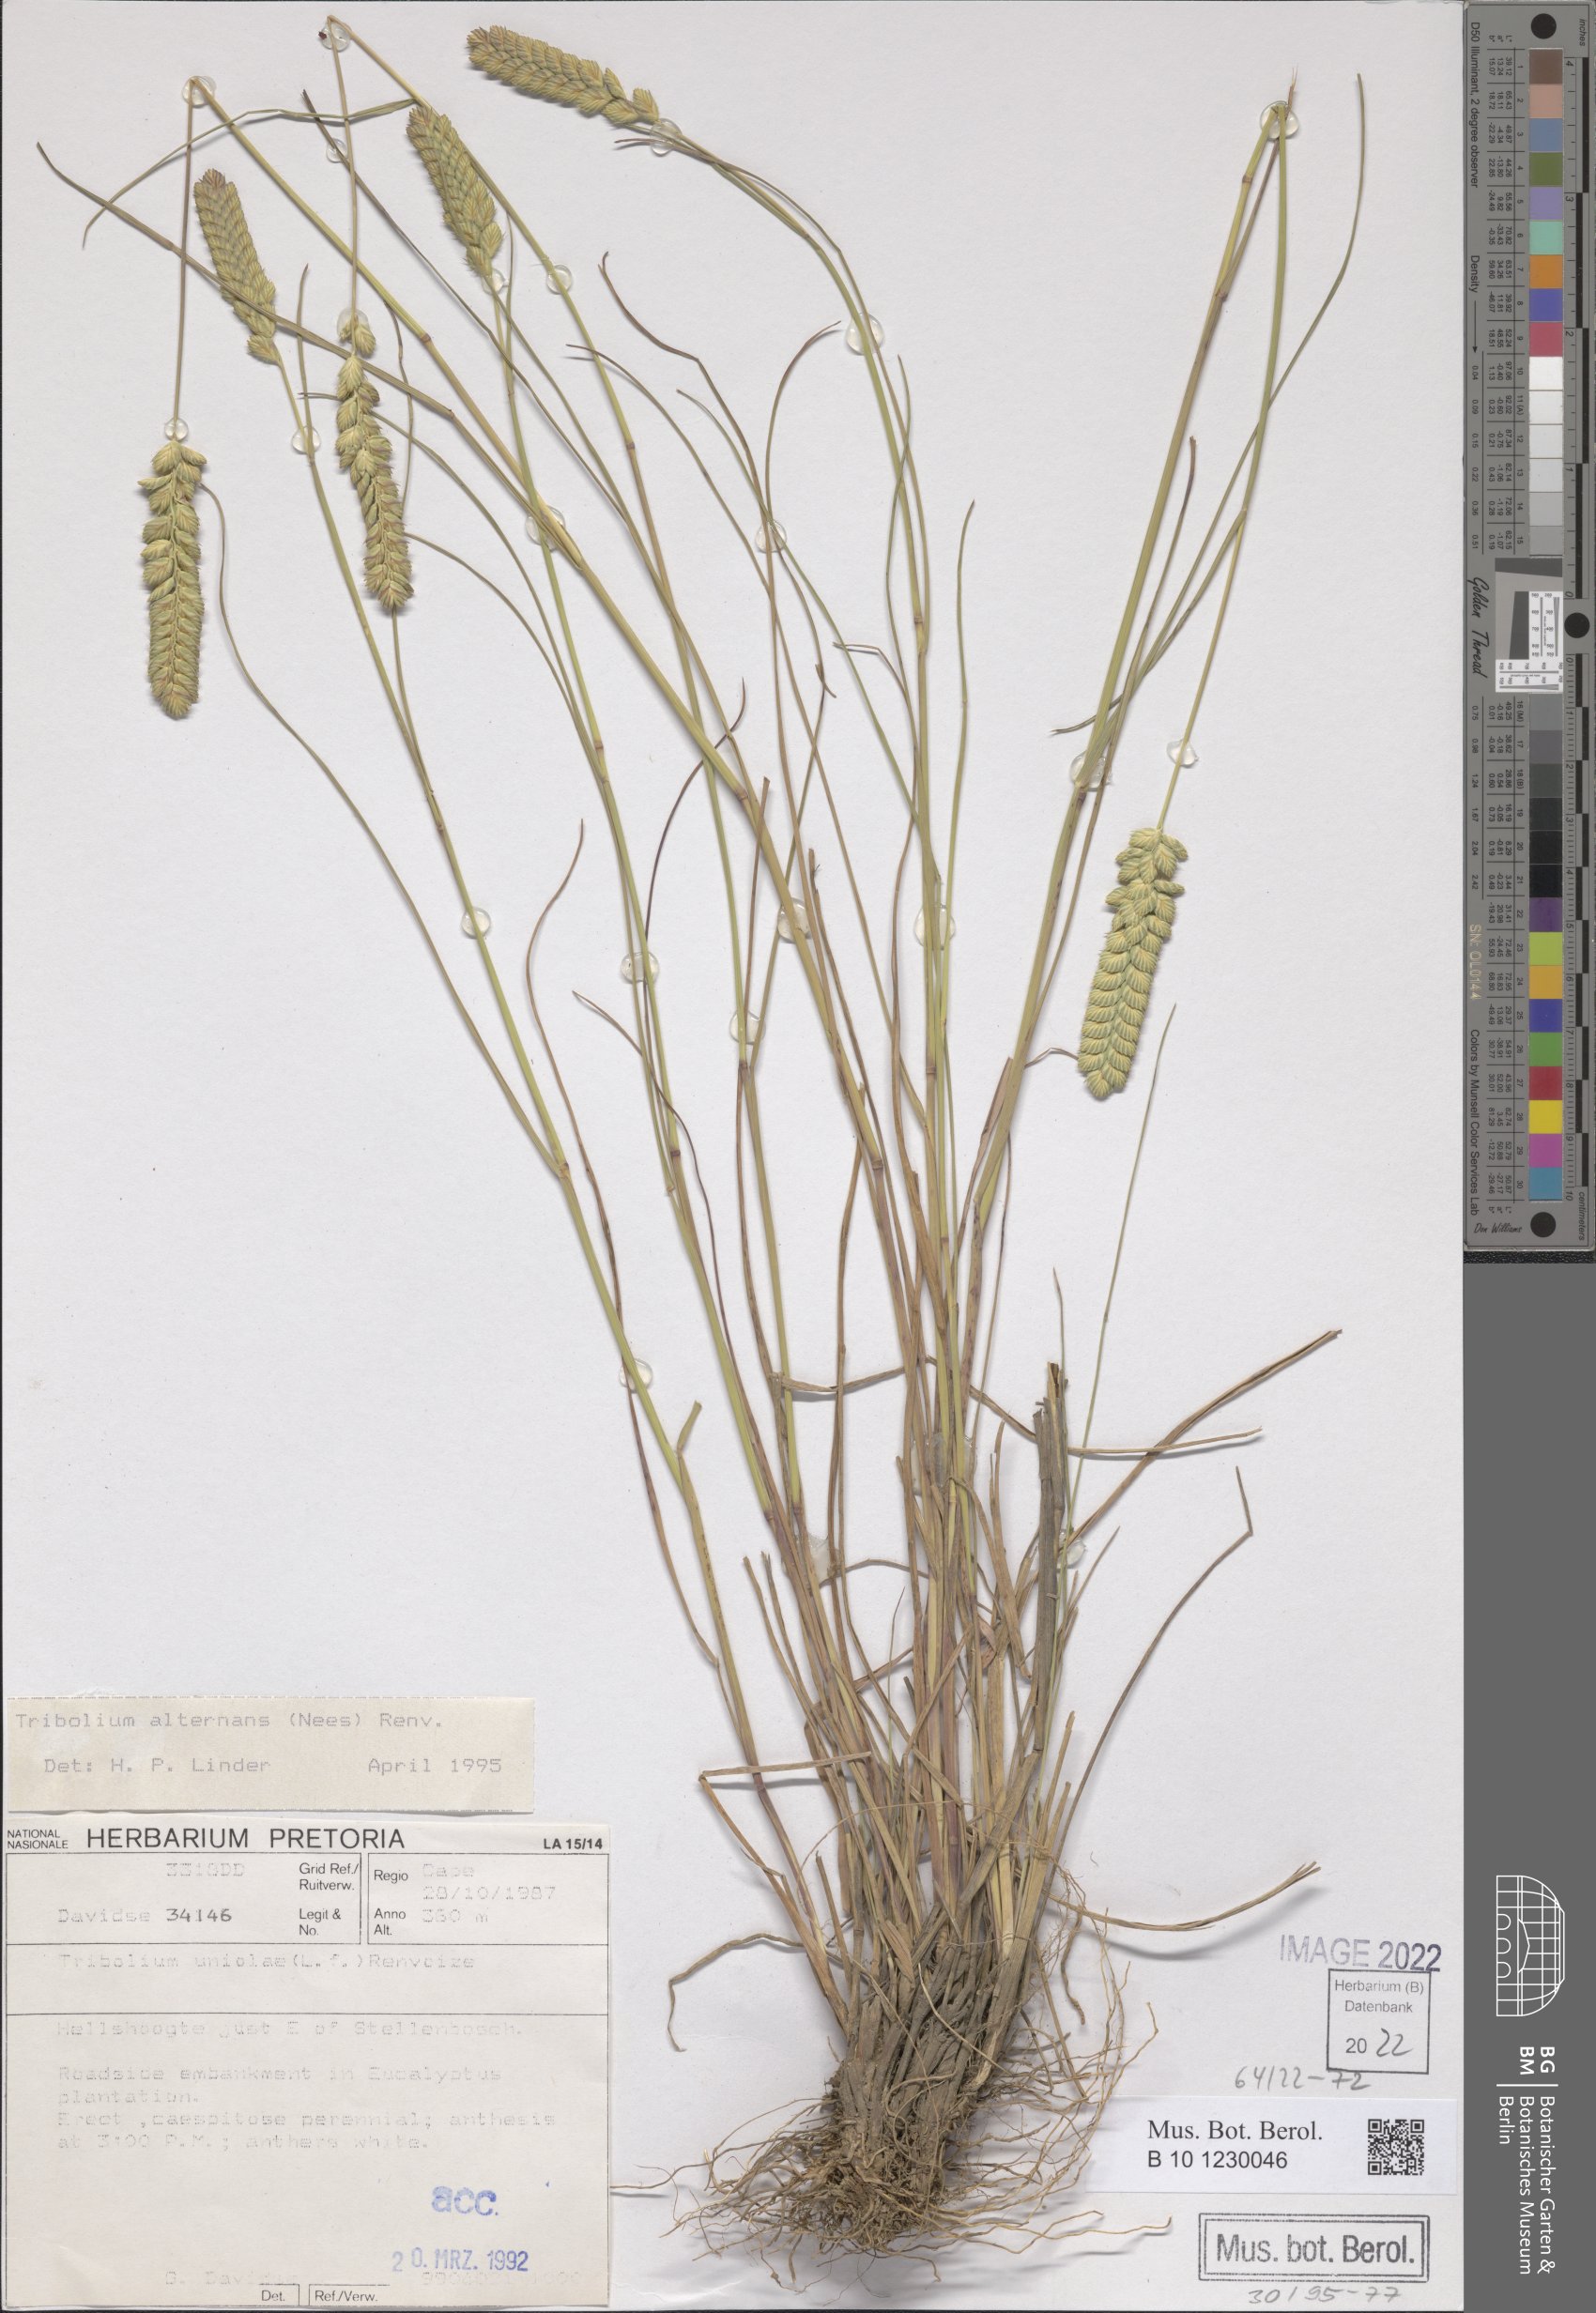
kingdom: Plantae
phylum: Tracheophyta
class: Liliopsida
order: Poales
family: Poaceae
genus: Tribolium
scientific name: Tribolium alternans
